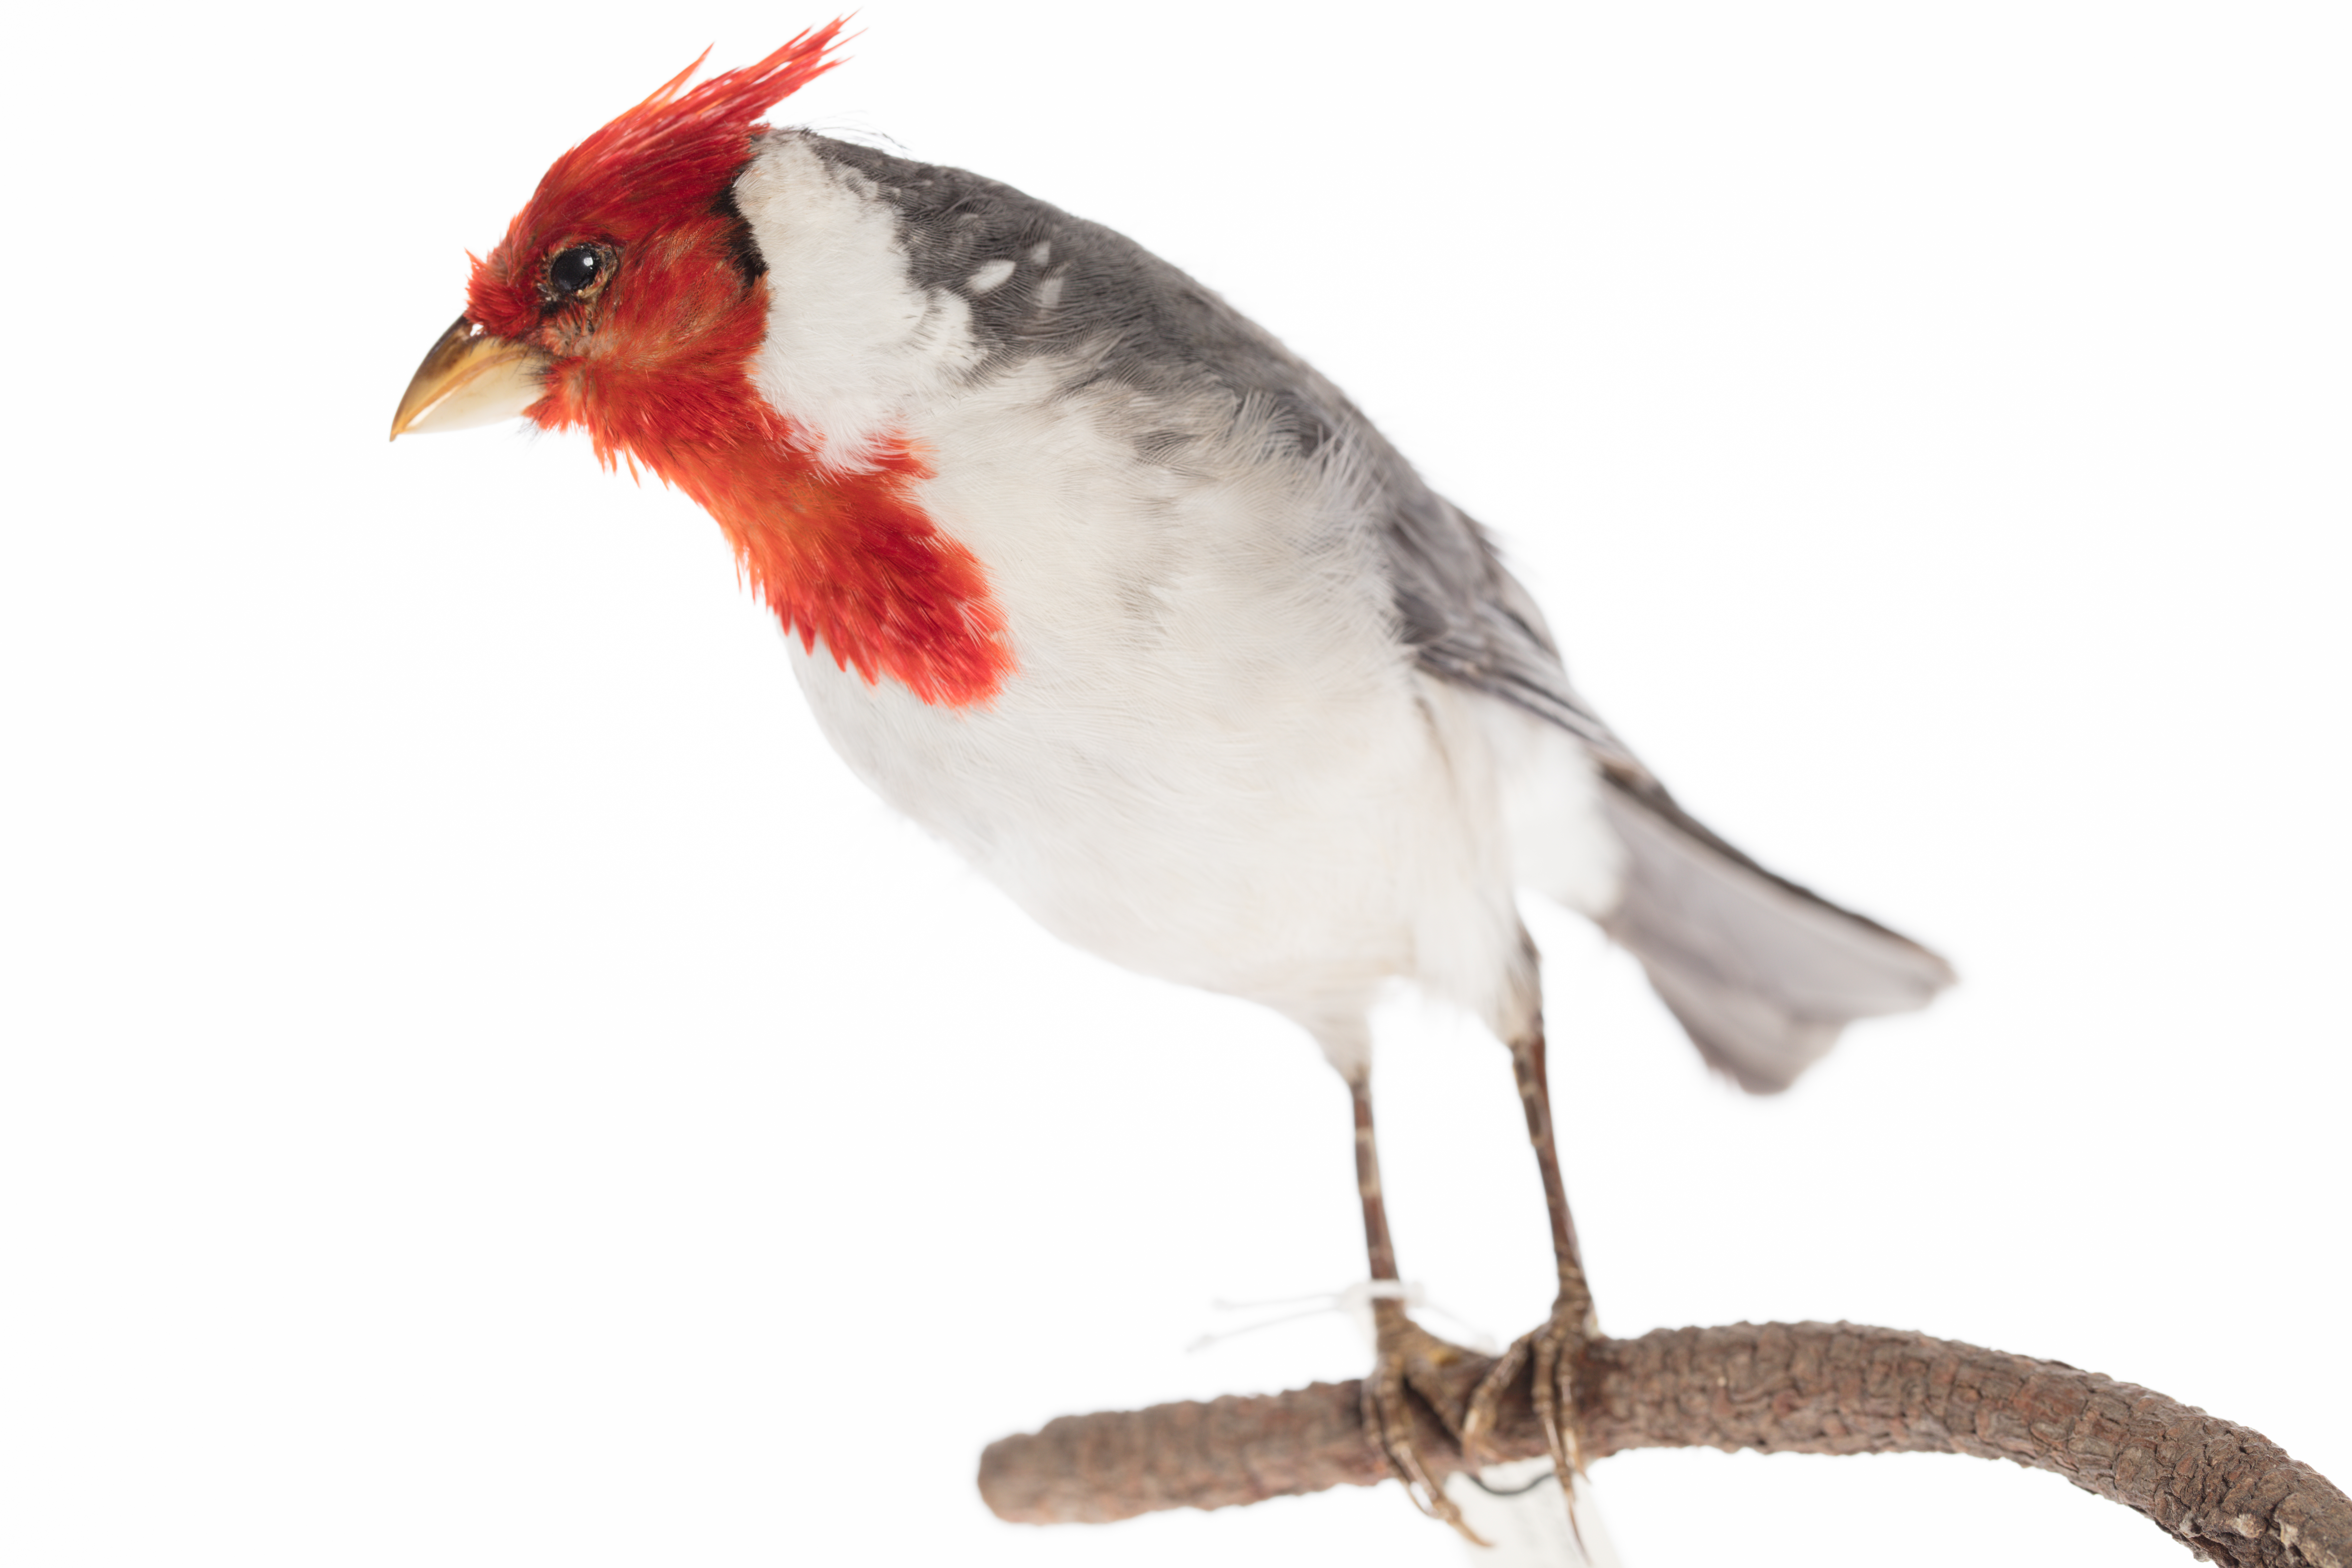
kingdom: Animalia
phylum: Chordata
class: Aves
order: Passeriformes
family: Thraupidae
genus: Paroaria
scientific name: Paroaria coronata
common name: Red-crested cardinal
